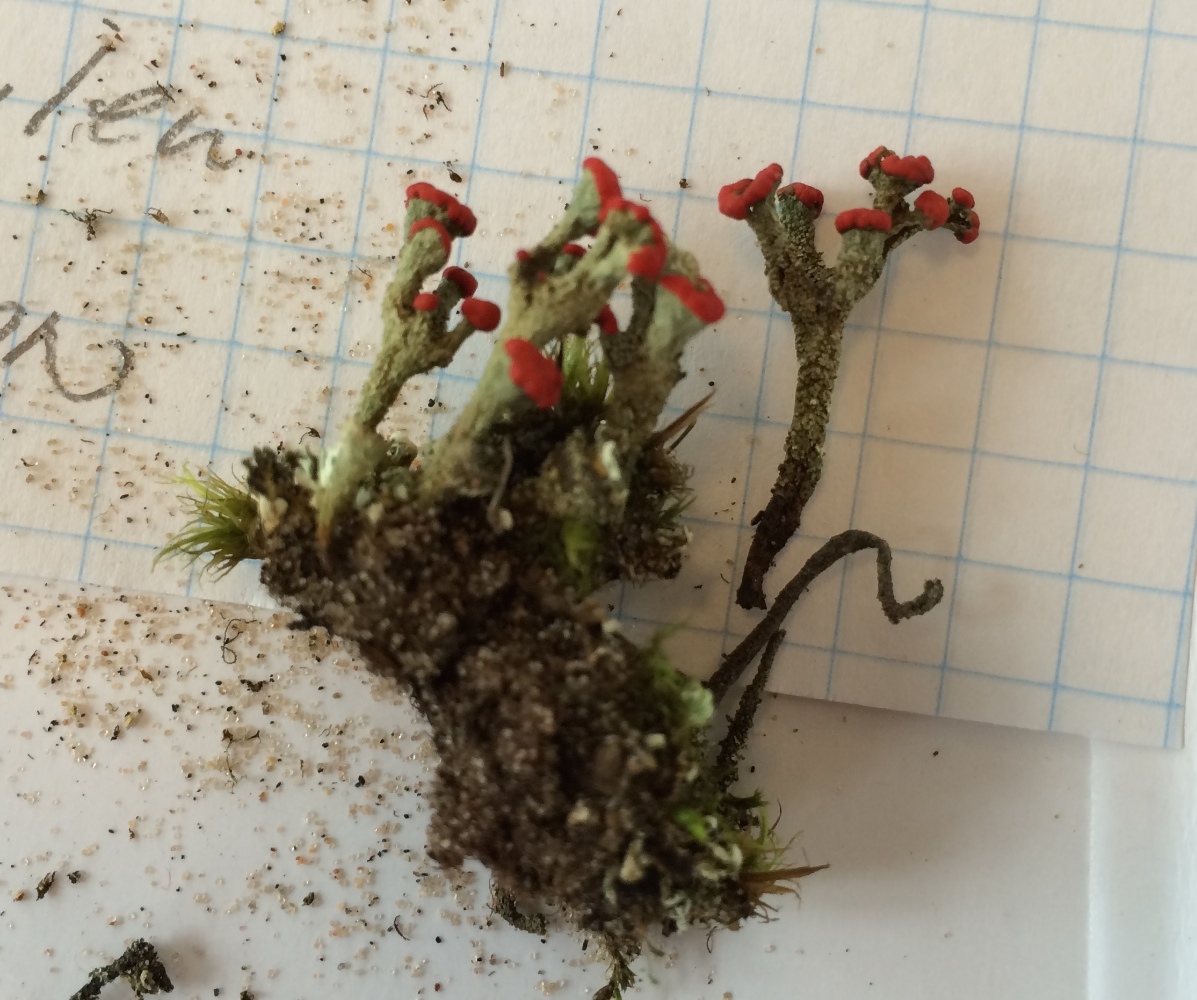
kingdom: Fungi
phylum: Ascomycota
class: Lecanoromycetes
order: Lecanorales
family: Cladoniaceae
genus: Cladonia
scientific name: Cladonia borealis
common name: nordlig bægerlav
